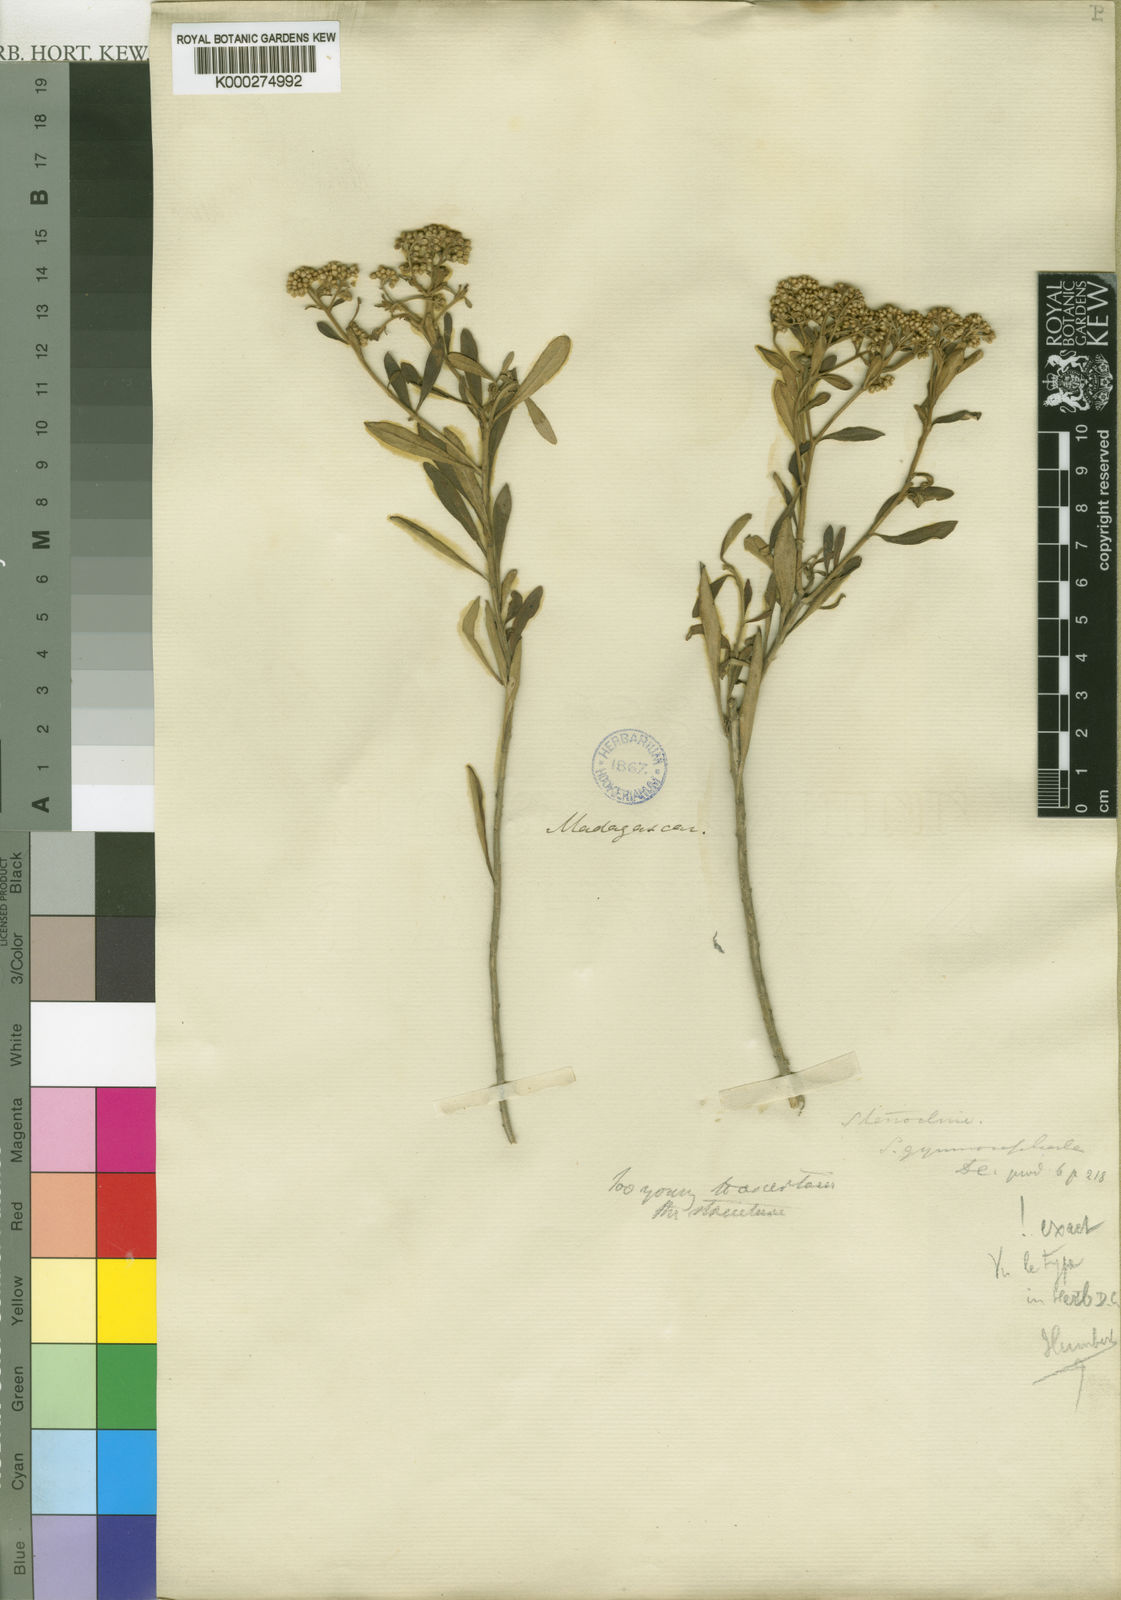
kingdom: Plantae
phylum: Tracheophyta
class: Magnoliopsida
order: Asterales
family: Asteraceae
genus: Stenocline
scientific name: Stenocline
